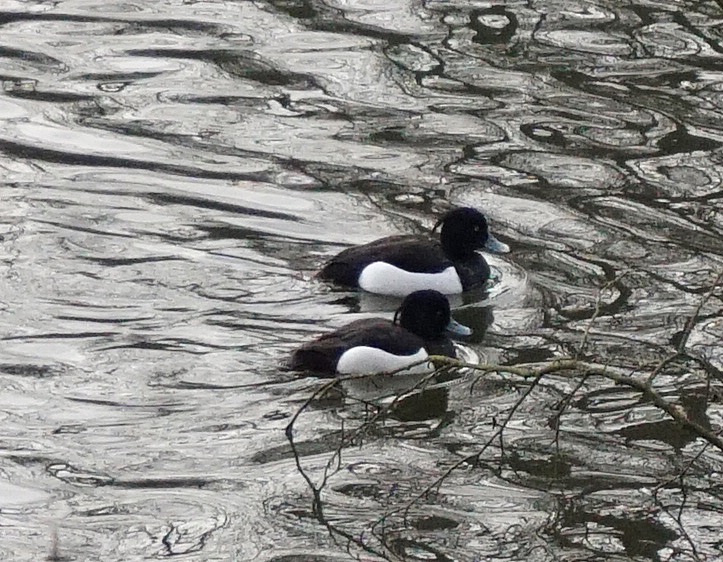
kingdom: Animalia
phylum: Chordata
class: Aves
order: Anseriformes
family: Anatidae
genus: Aythya
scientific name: Aythya fuligula
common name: Troldand
